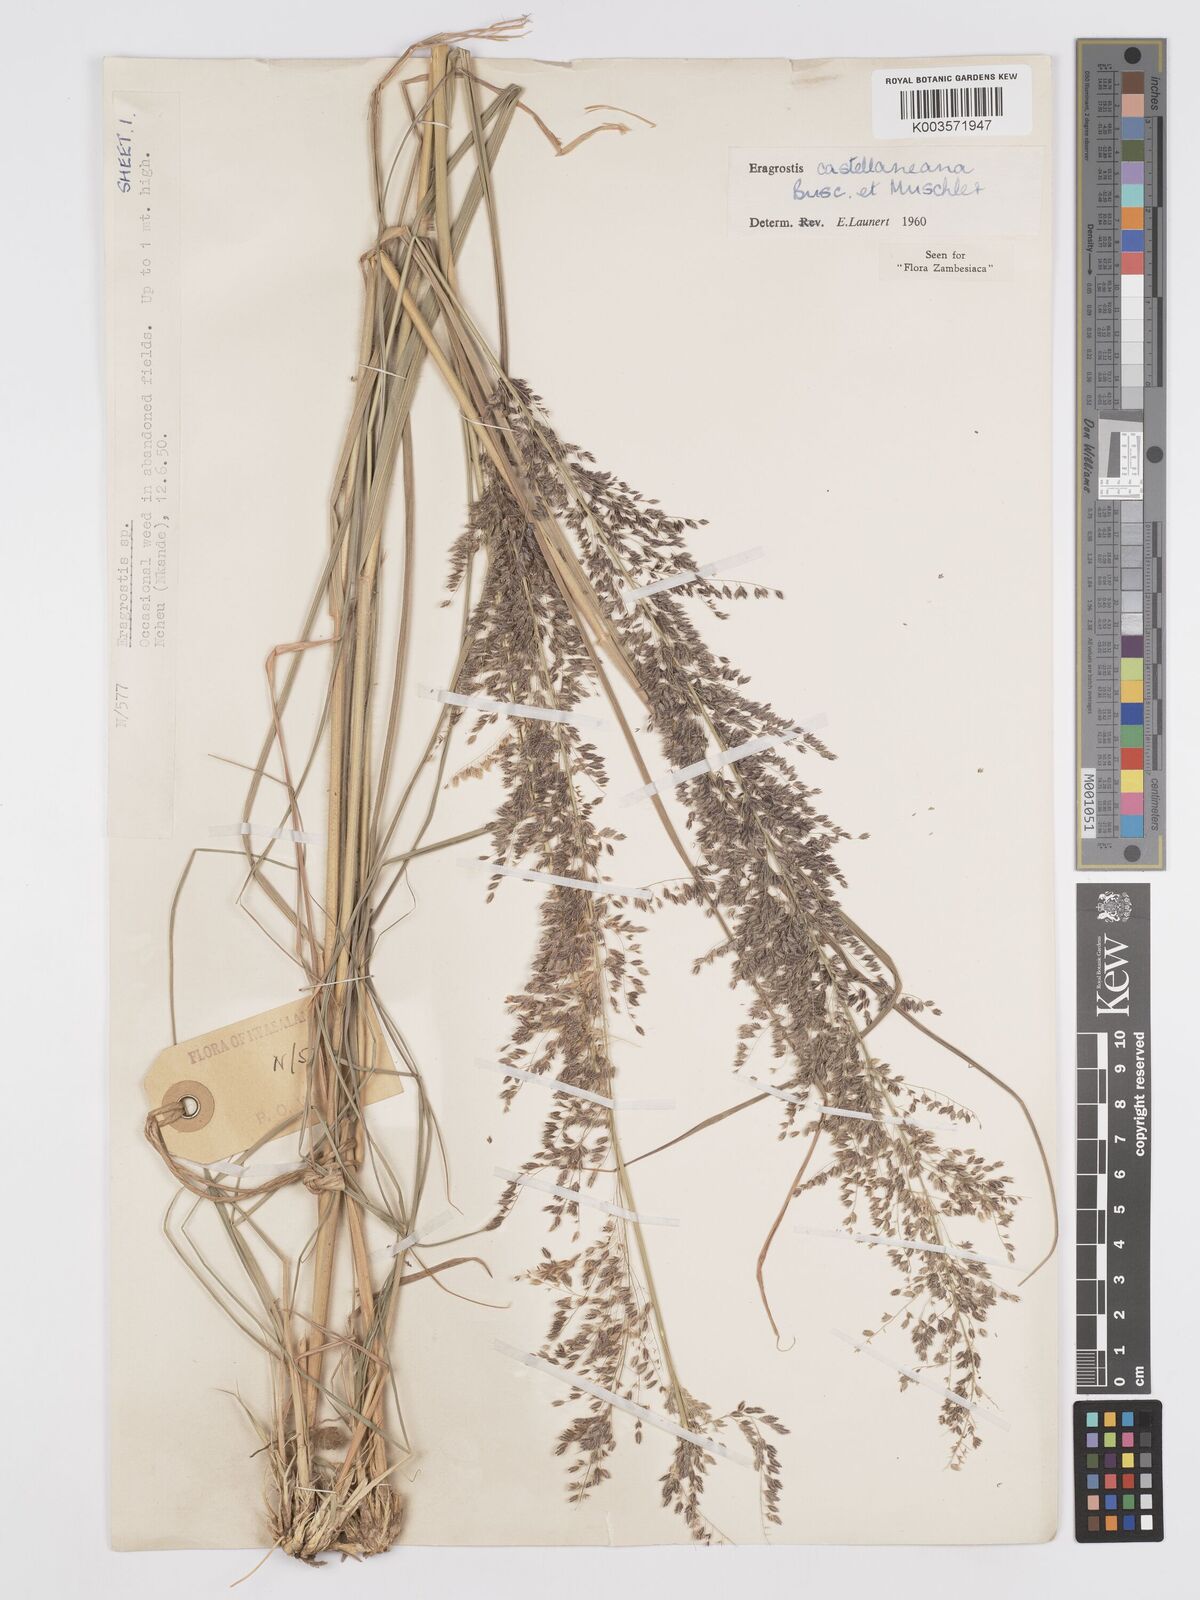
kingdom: Plantae
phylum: Tracheophyta
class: Liliopsida
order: Poales
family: Poaceae
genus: Eragrostis
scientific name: Eragrostis castellaneana
